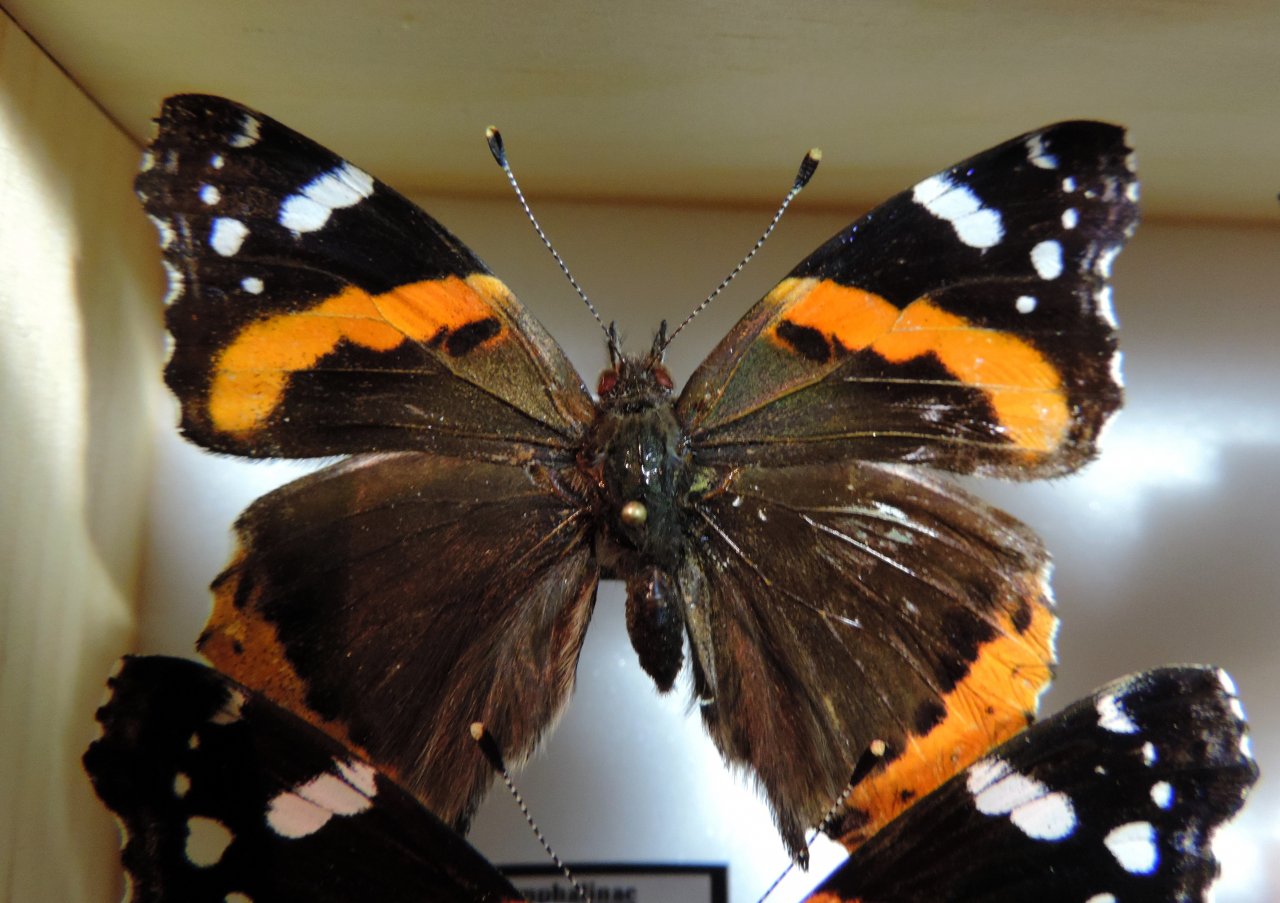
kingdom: Animalia
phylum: Arthropoda
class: Insecta
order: Lepidoptera
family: Nymphalidae
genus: Vanessa
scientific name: Vanessa atalanta
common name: Red Admiral
